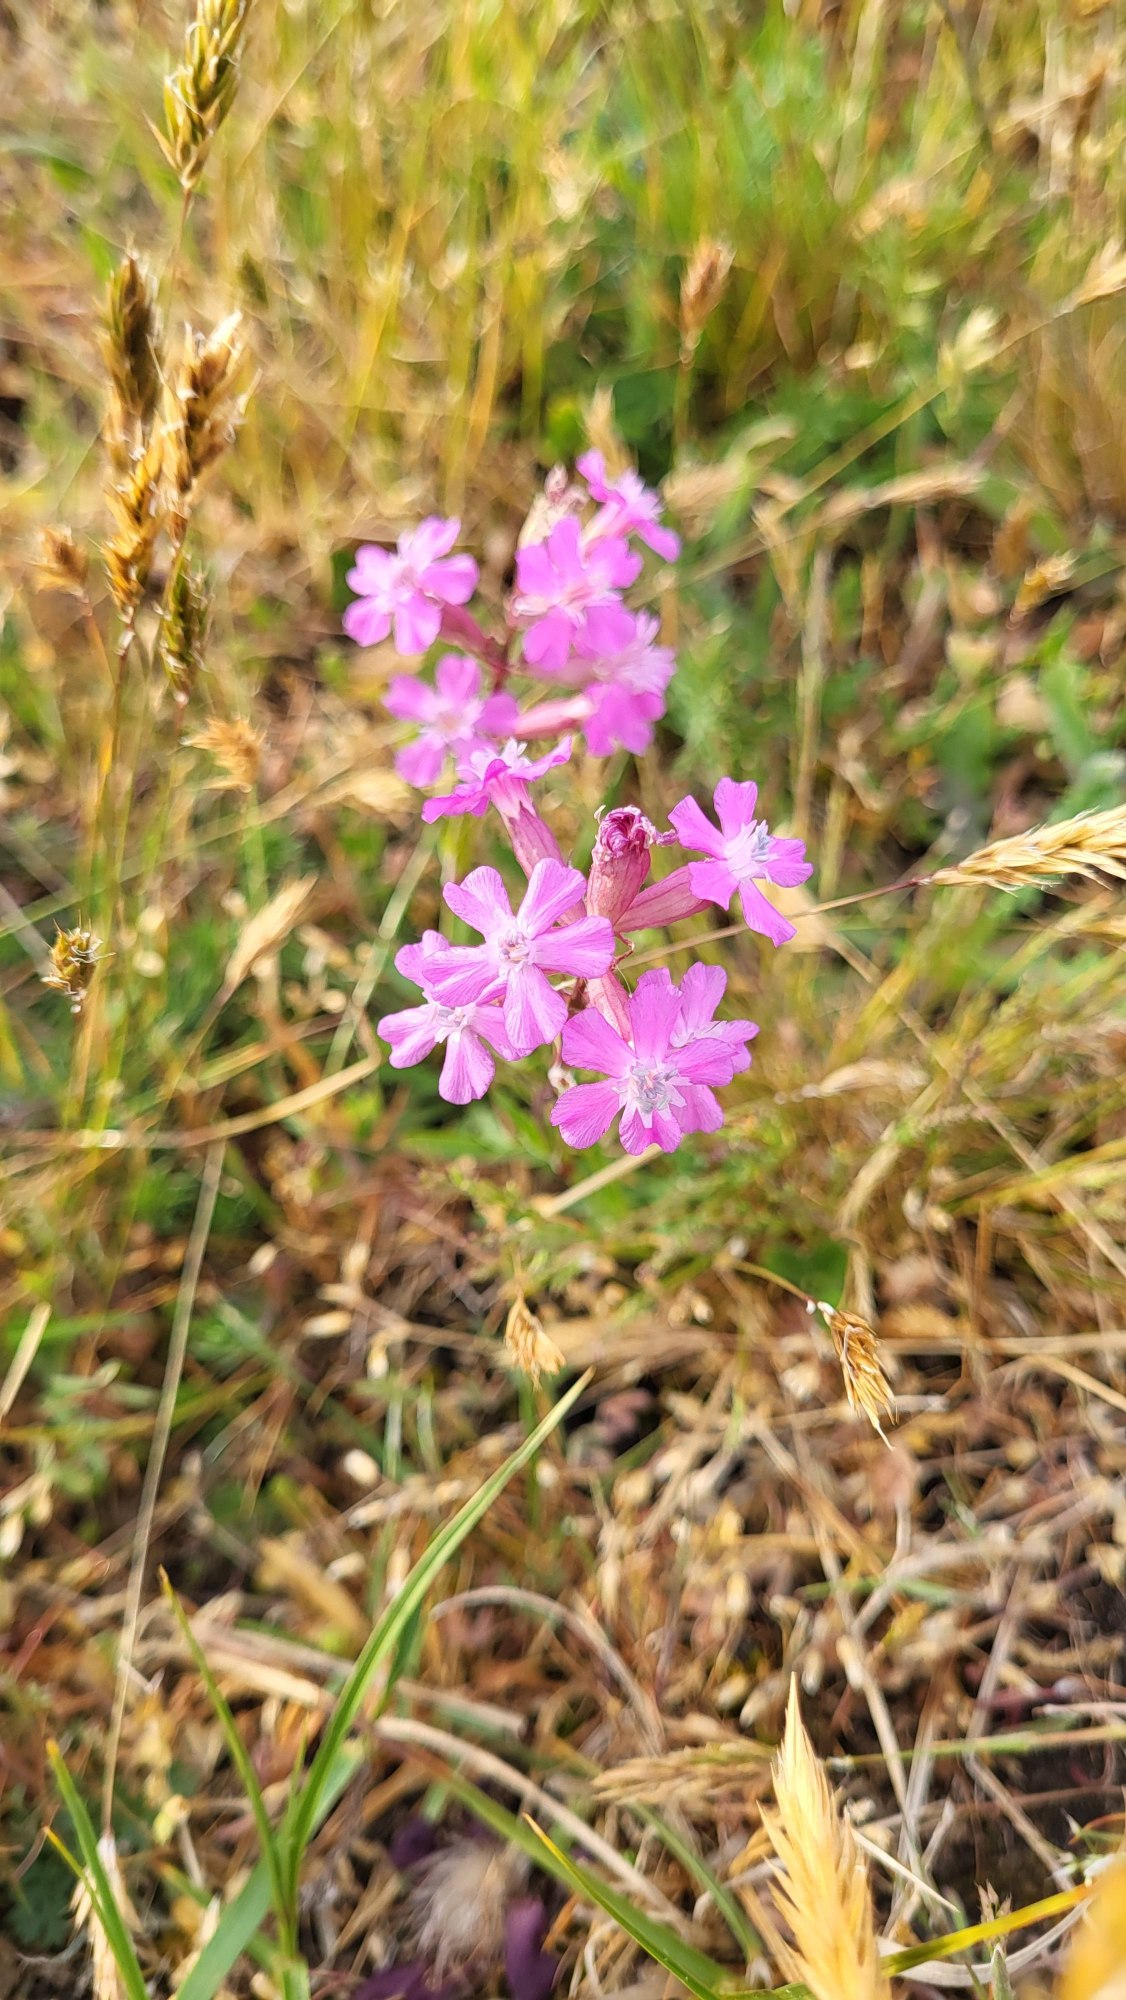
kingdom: Plantae
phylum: Tracheophyta
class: Magnoliopsida
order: Caryophyllales
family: Caryophyllaceae
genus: Viscaria
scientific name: Viscaria vulgaris
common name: Tjærenellike
